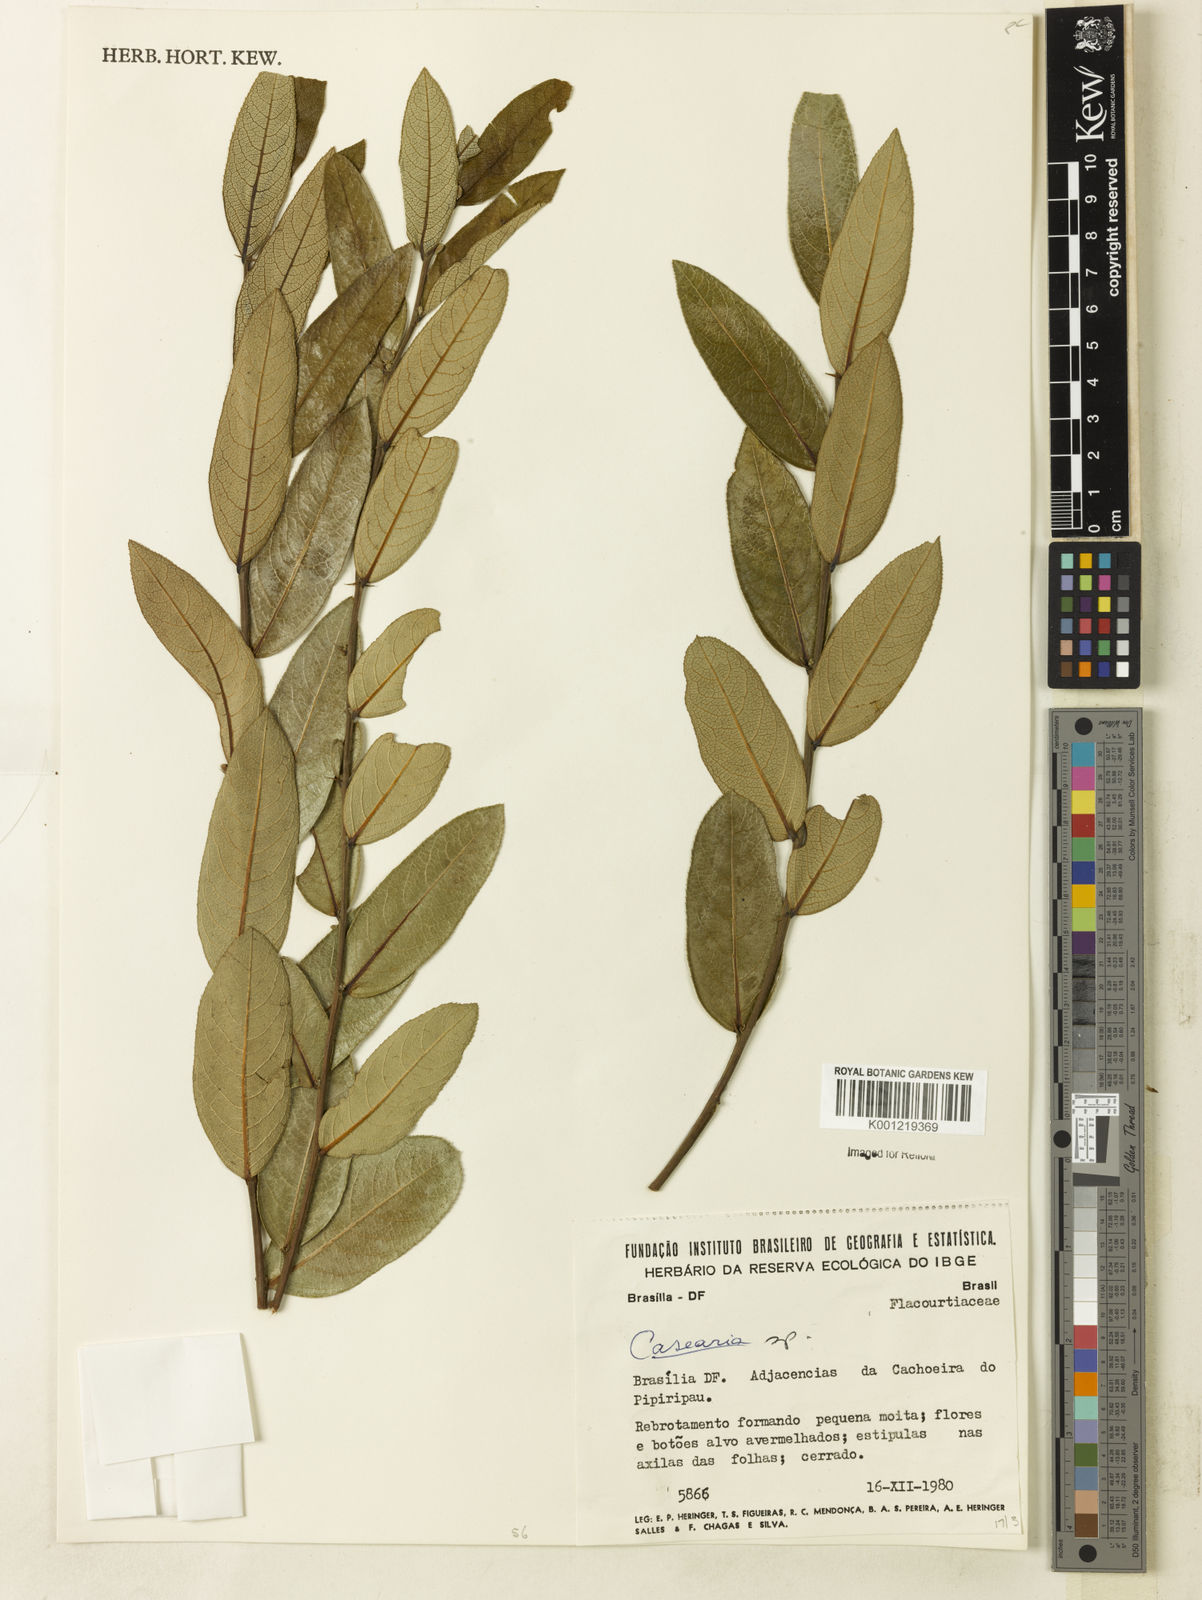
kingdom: Plantae
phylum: Tracheophyta
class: Magnoliopsida
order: Malpighiales
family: Salicaceae
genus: Casearia
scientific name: Casearia
